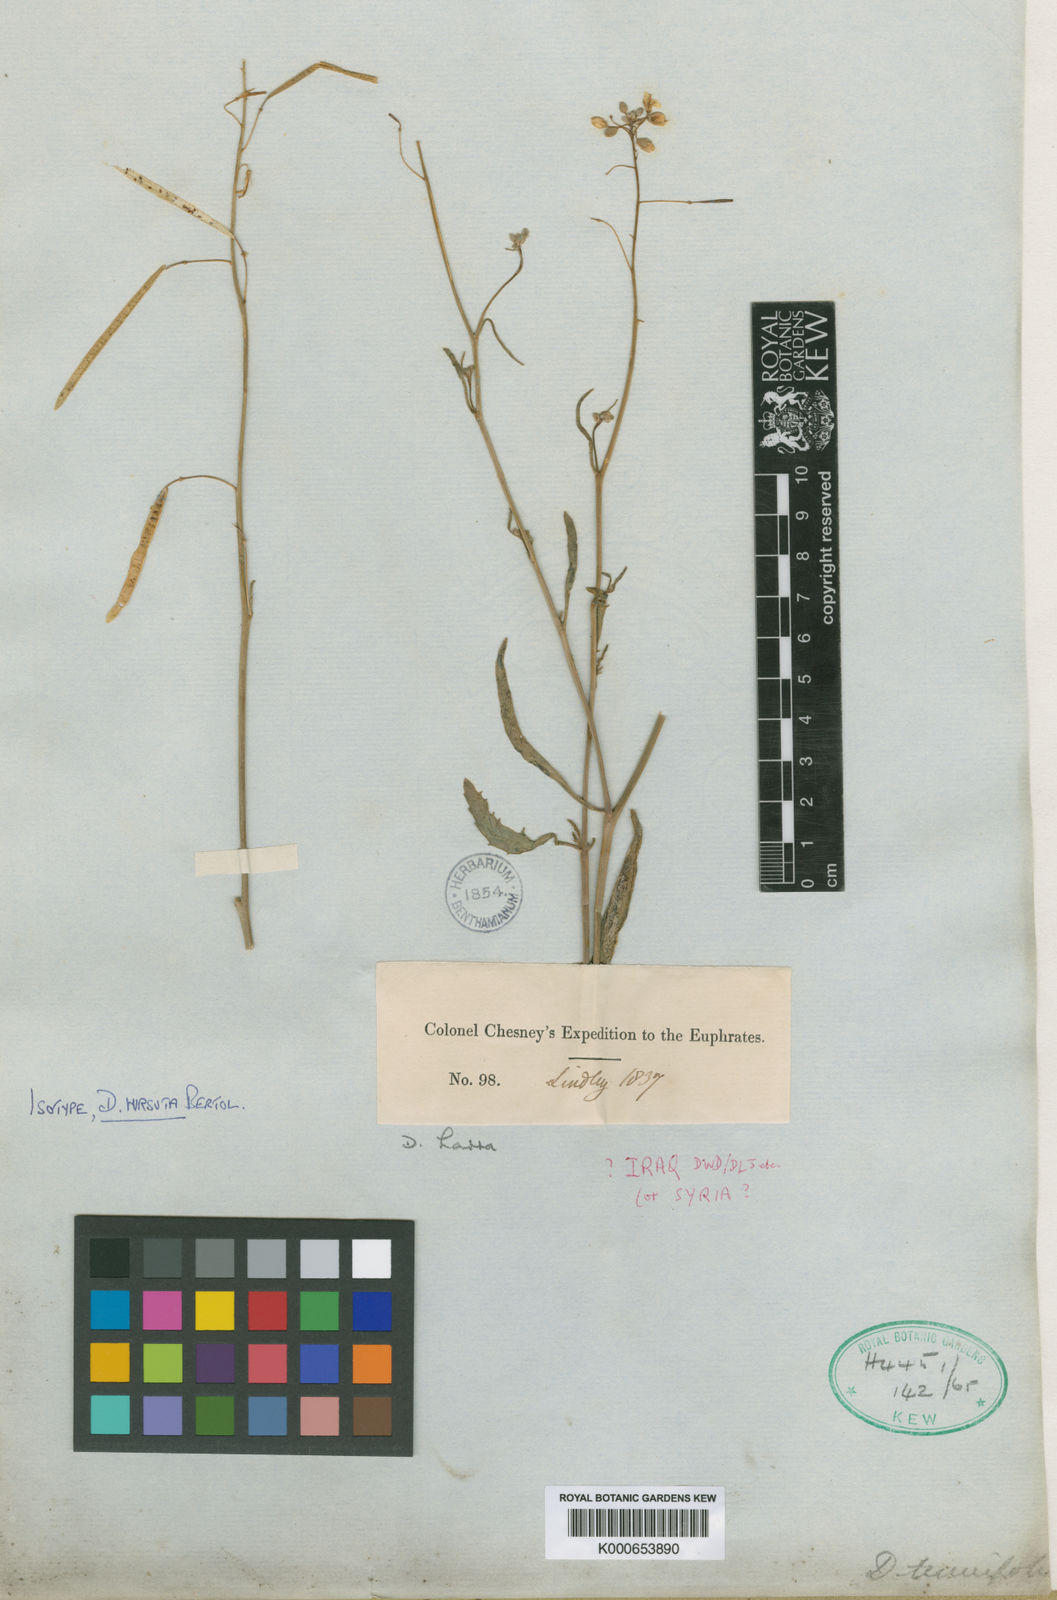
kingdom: Plantae
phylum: Tracheophyta
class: Magnoliopsida
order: Brassicales
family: Brassicaceae
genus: Diplotaxis
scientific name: Diplotaxis harra
